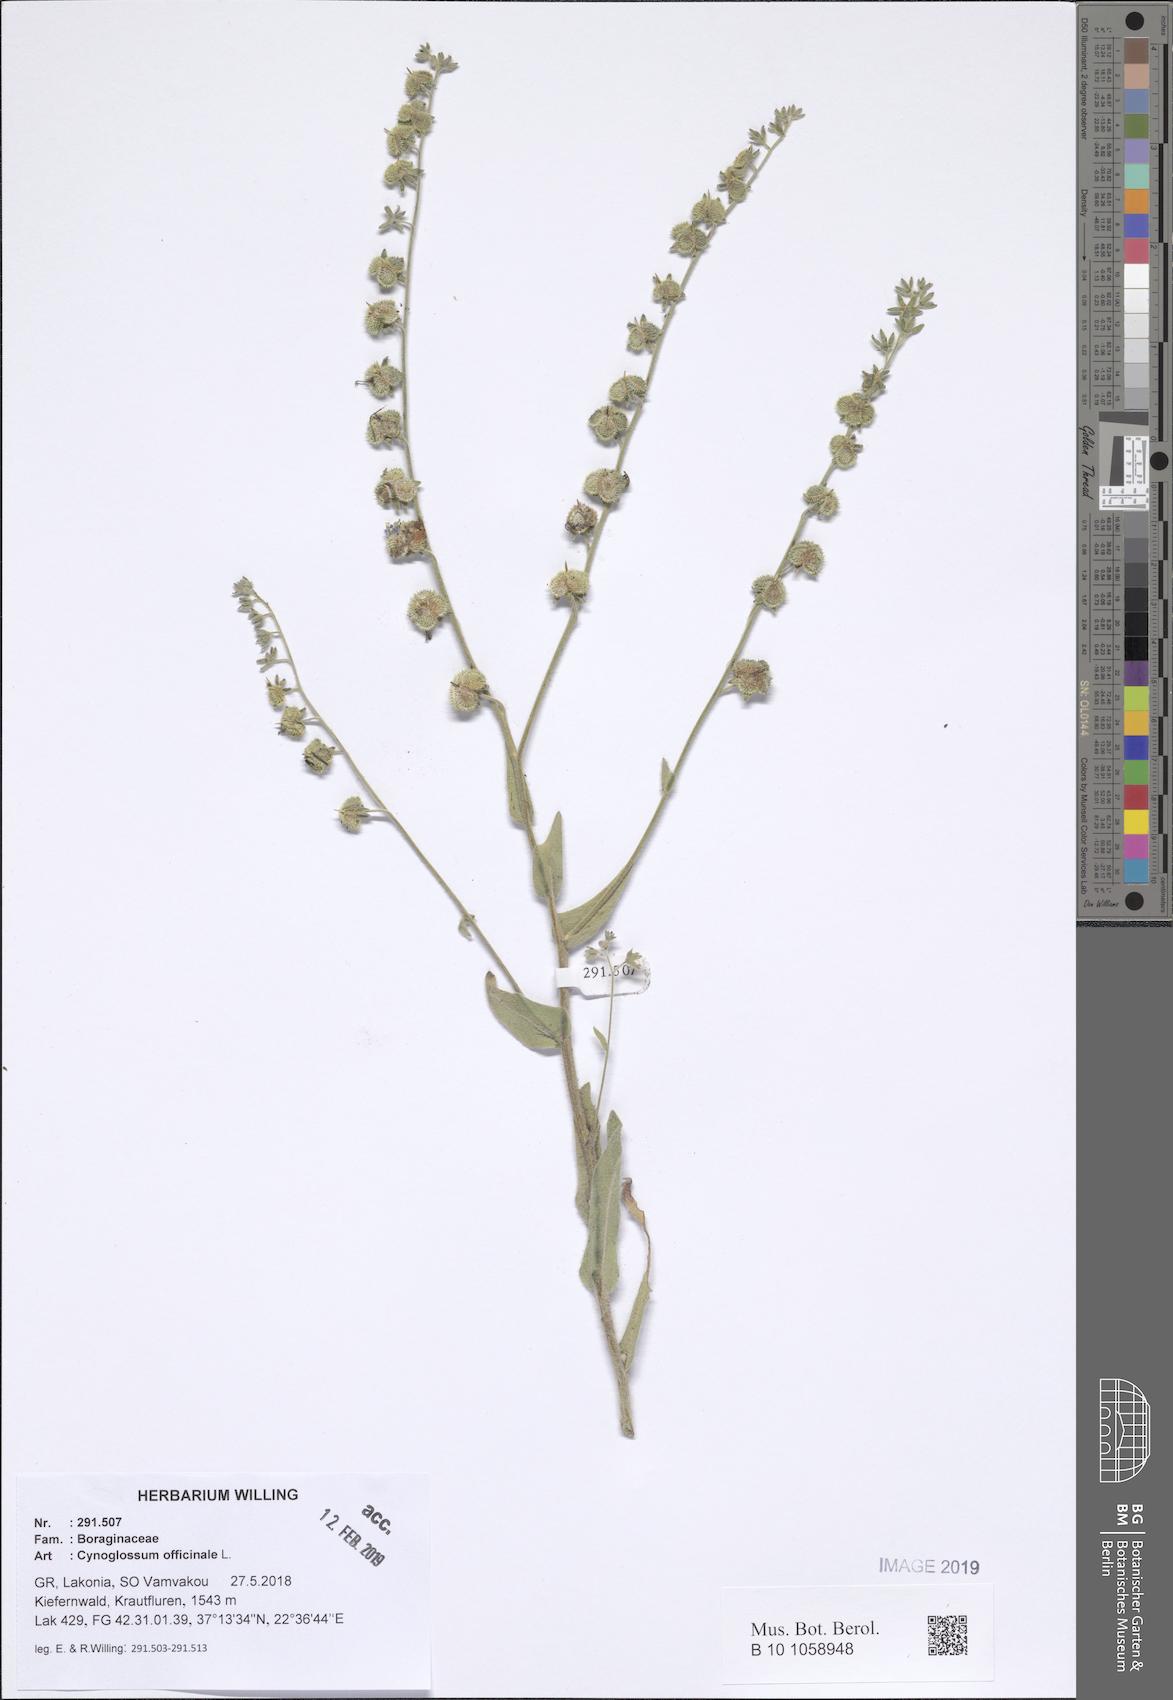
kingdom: Plantae
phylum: Tracheophyta
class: Magnoliopsida
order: Boraginales
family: Boraginaceae
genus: Rindera
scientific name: Rindera columnae
